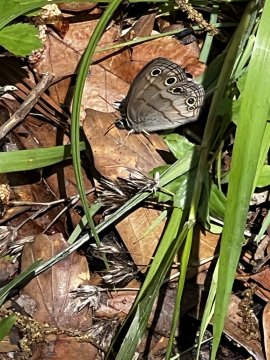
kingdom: Animalia
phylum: Arthropoda
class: Insecta
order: Lepidoptera
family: Nymphalidae
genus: Euptychia
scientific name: Euptychia cymela
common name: Little Wood Satyr
